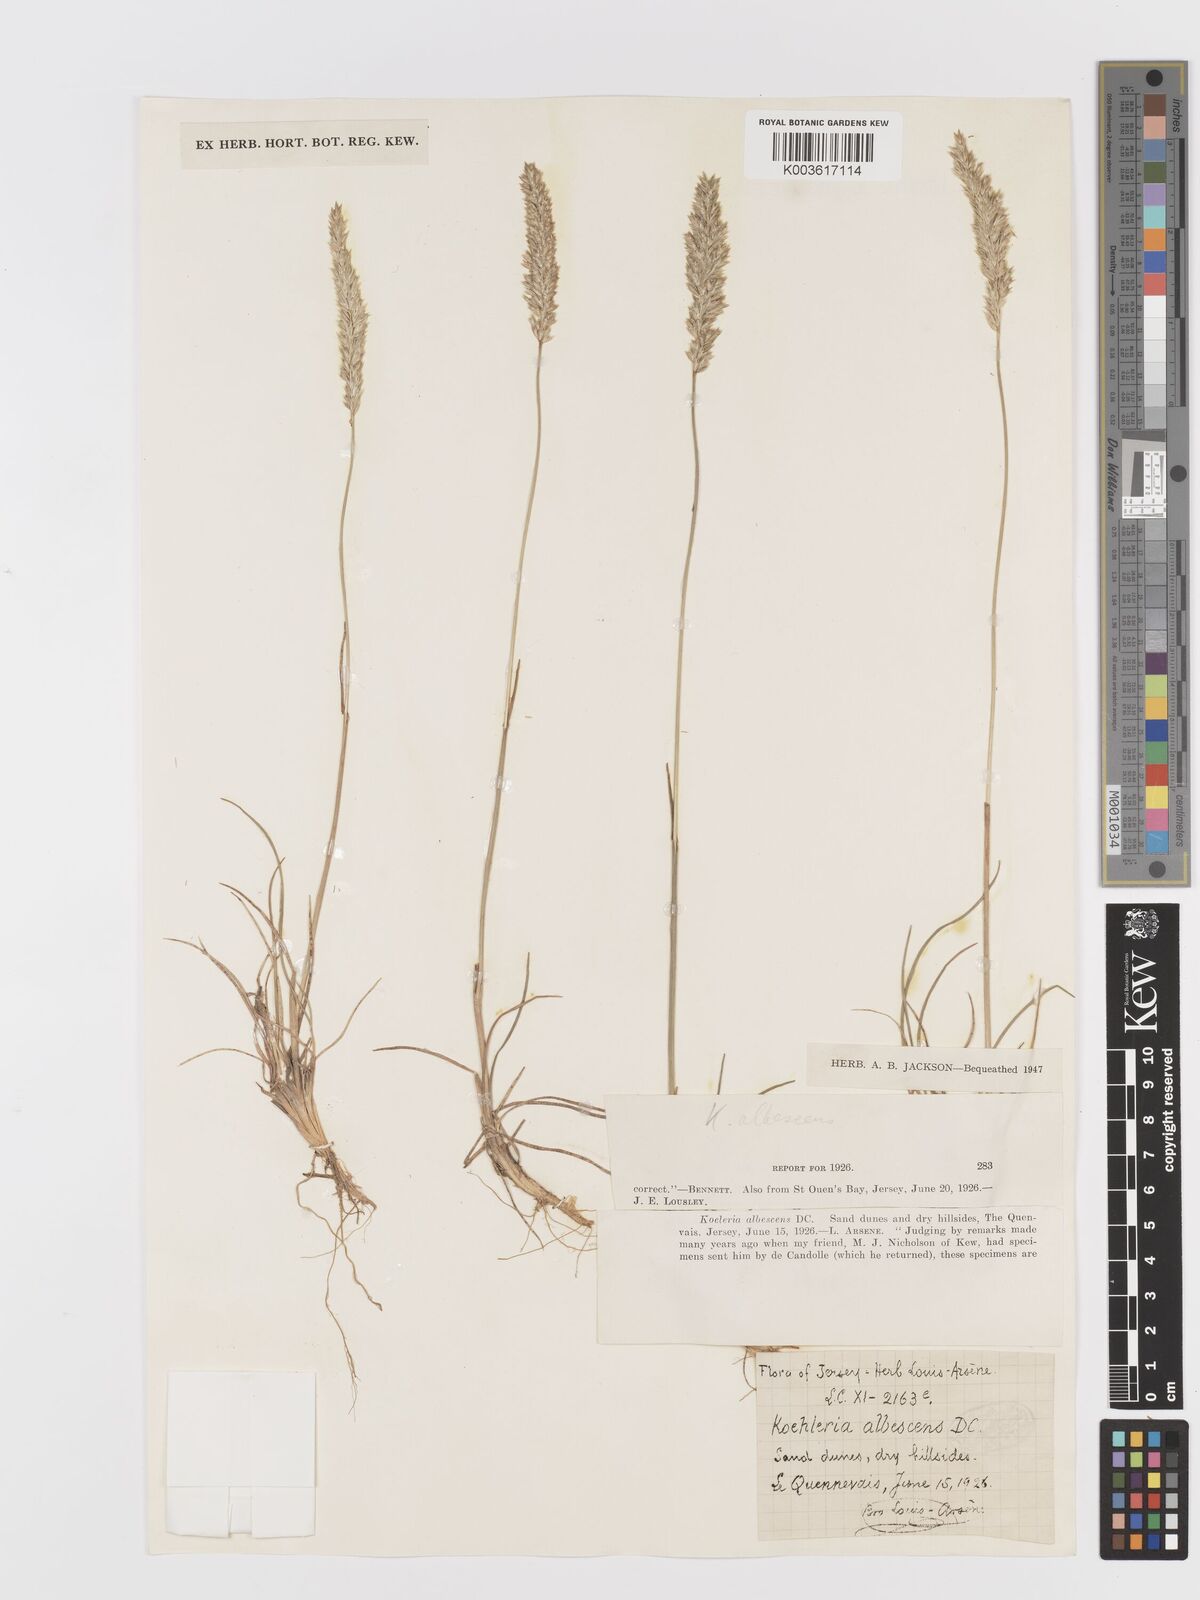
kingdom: Plantae
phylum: Tracheophyta
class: Liliopsida
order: Poales
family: Poaceae
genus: Koeleria
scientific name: Koeleria macrantha
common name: Crested hair-grass
